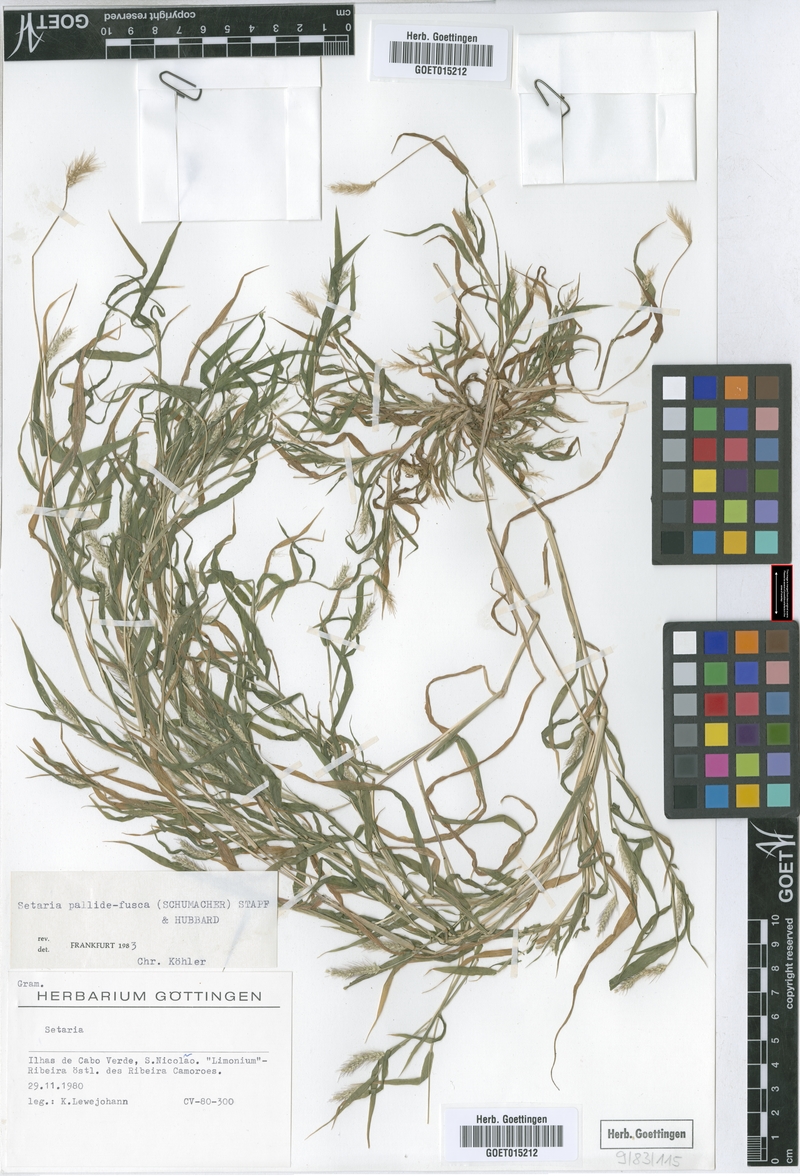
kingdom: Plantae
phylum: Tracheophyta
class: Liliopsida
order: Poales
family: Poaceae
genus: Setaria
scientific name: Setaria pumila
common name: Yellow bristle-grass
